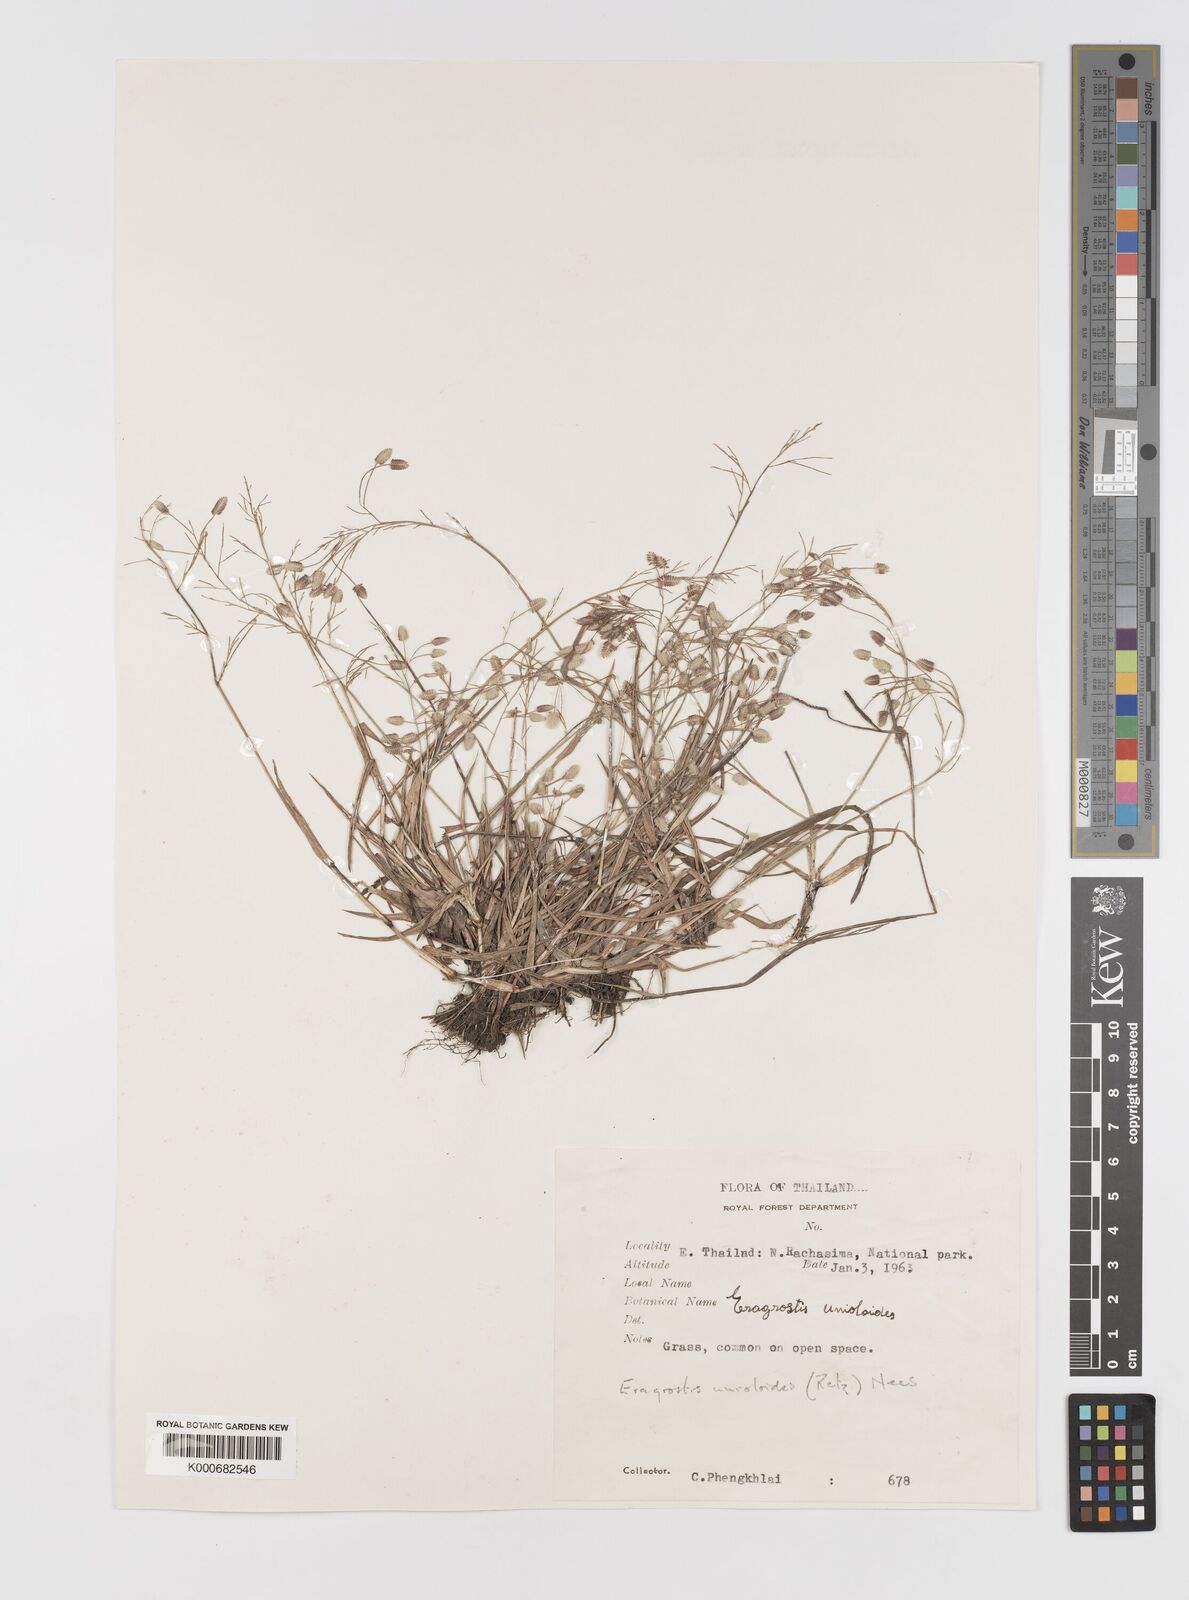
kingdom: Plantae
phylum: Tracheophyta
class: Liliopsida
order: Poales
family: Poaceae
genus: Eragrostis
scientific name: Eragrostis unioloides
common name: Chinese lovegrass
